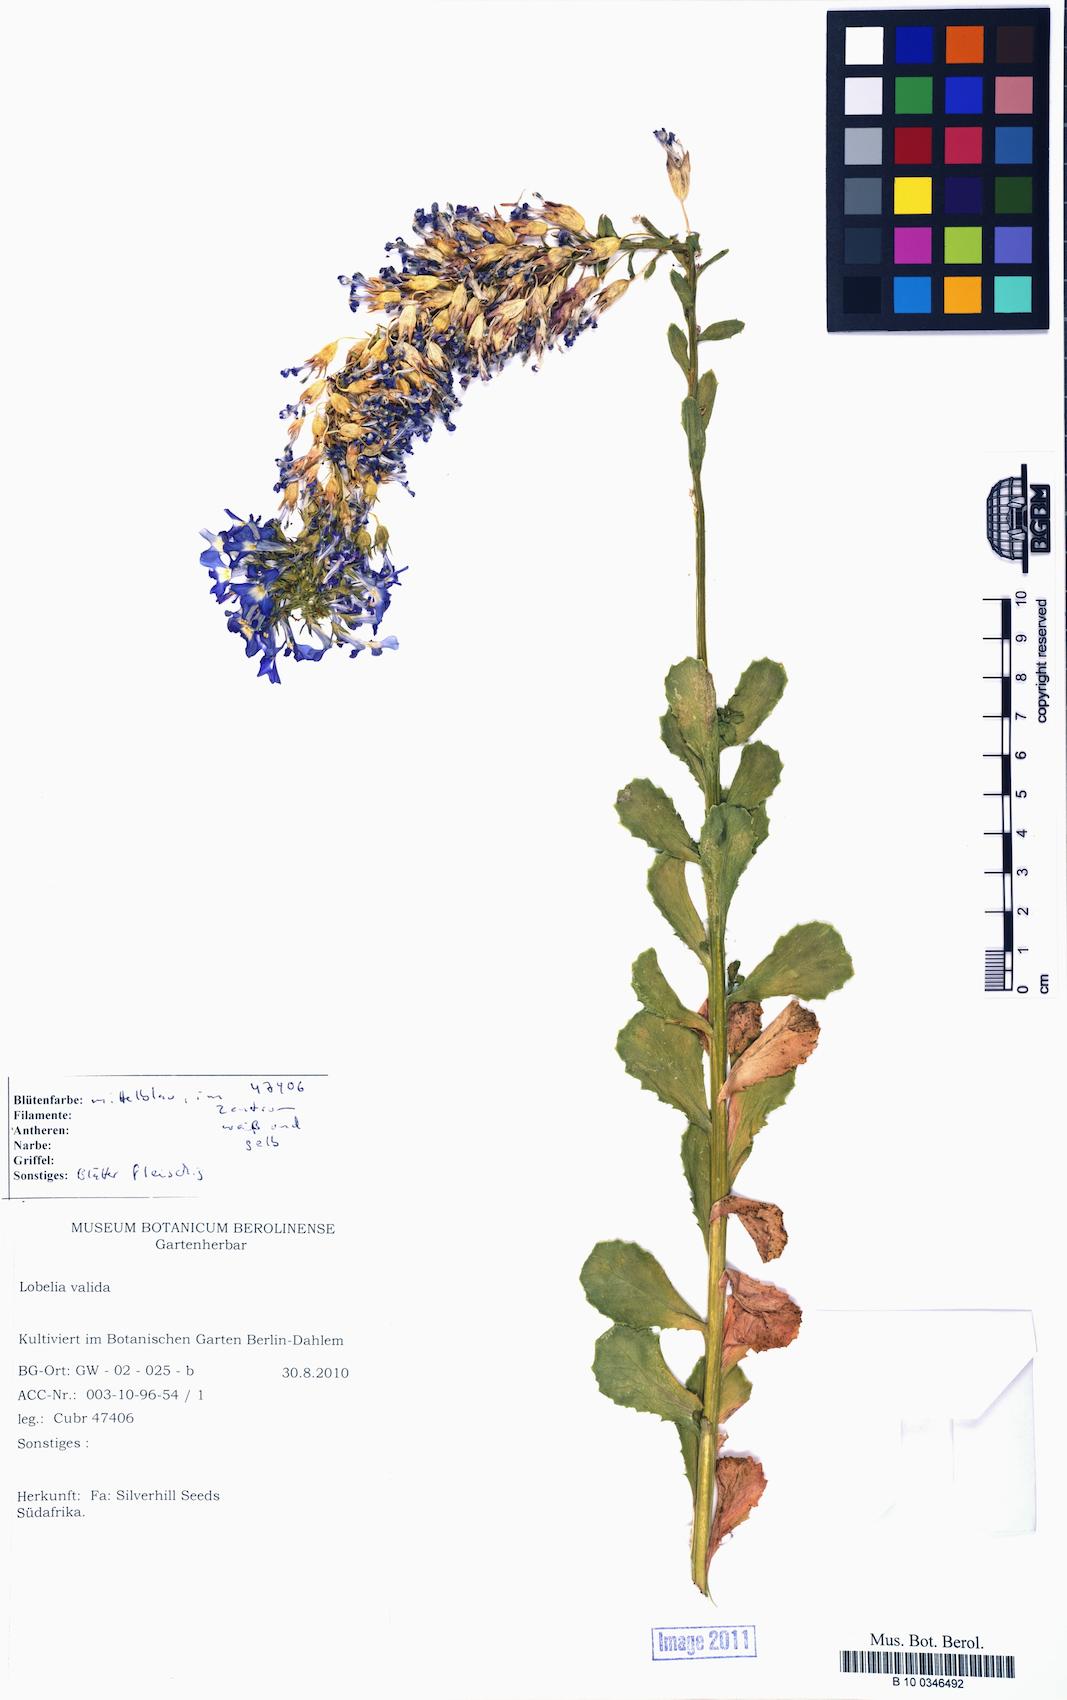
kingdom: Plantae
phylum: Tracheophyta
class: Magnoliopsida
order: Asterales
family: Campanulaceae
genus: Lobelia
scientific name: Lobelia valida
